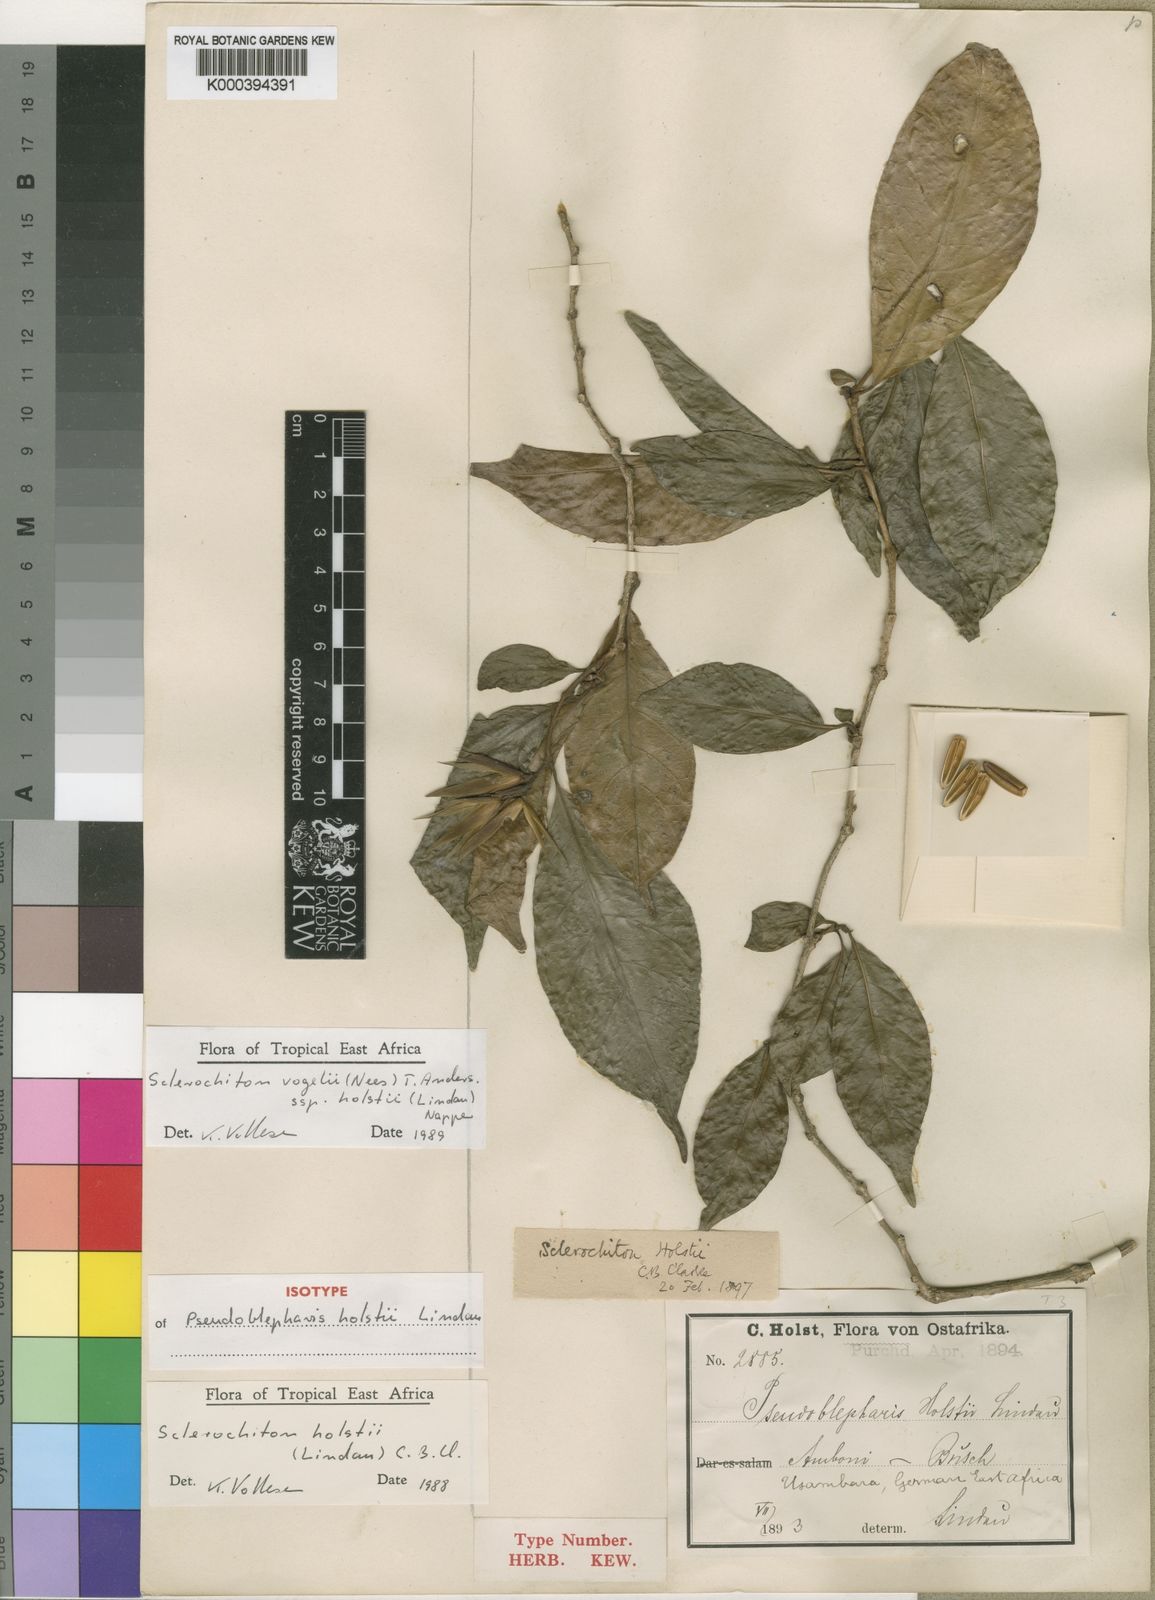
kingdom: Plantae
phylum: Tracheophyta
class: Magnoliopsida
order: Lamiales
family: Acanthaceae
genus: Sclerochiton
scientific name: Sclerochiton vogelii
